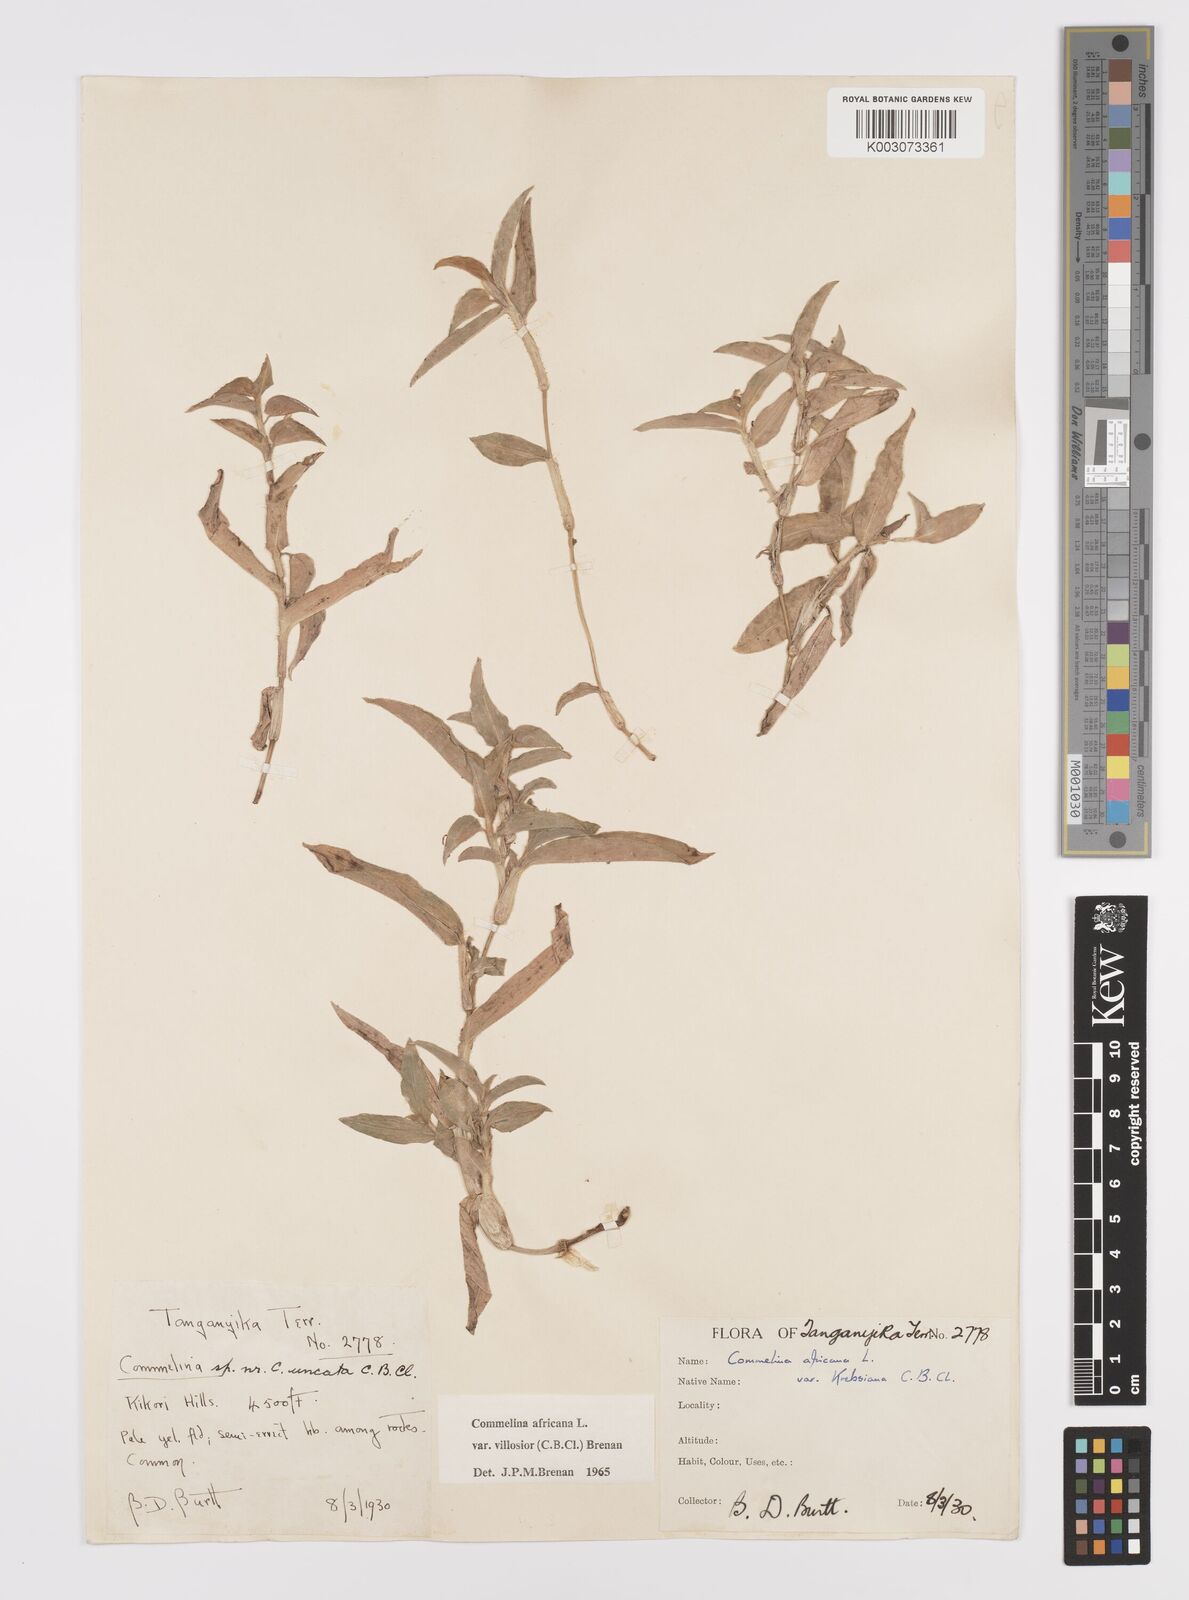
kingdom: Plantae
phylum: Tracheophyta
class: Liliopsida
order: Commelinales
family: Commelinaceae
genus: Commelina
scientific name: Commelina africana
